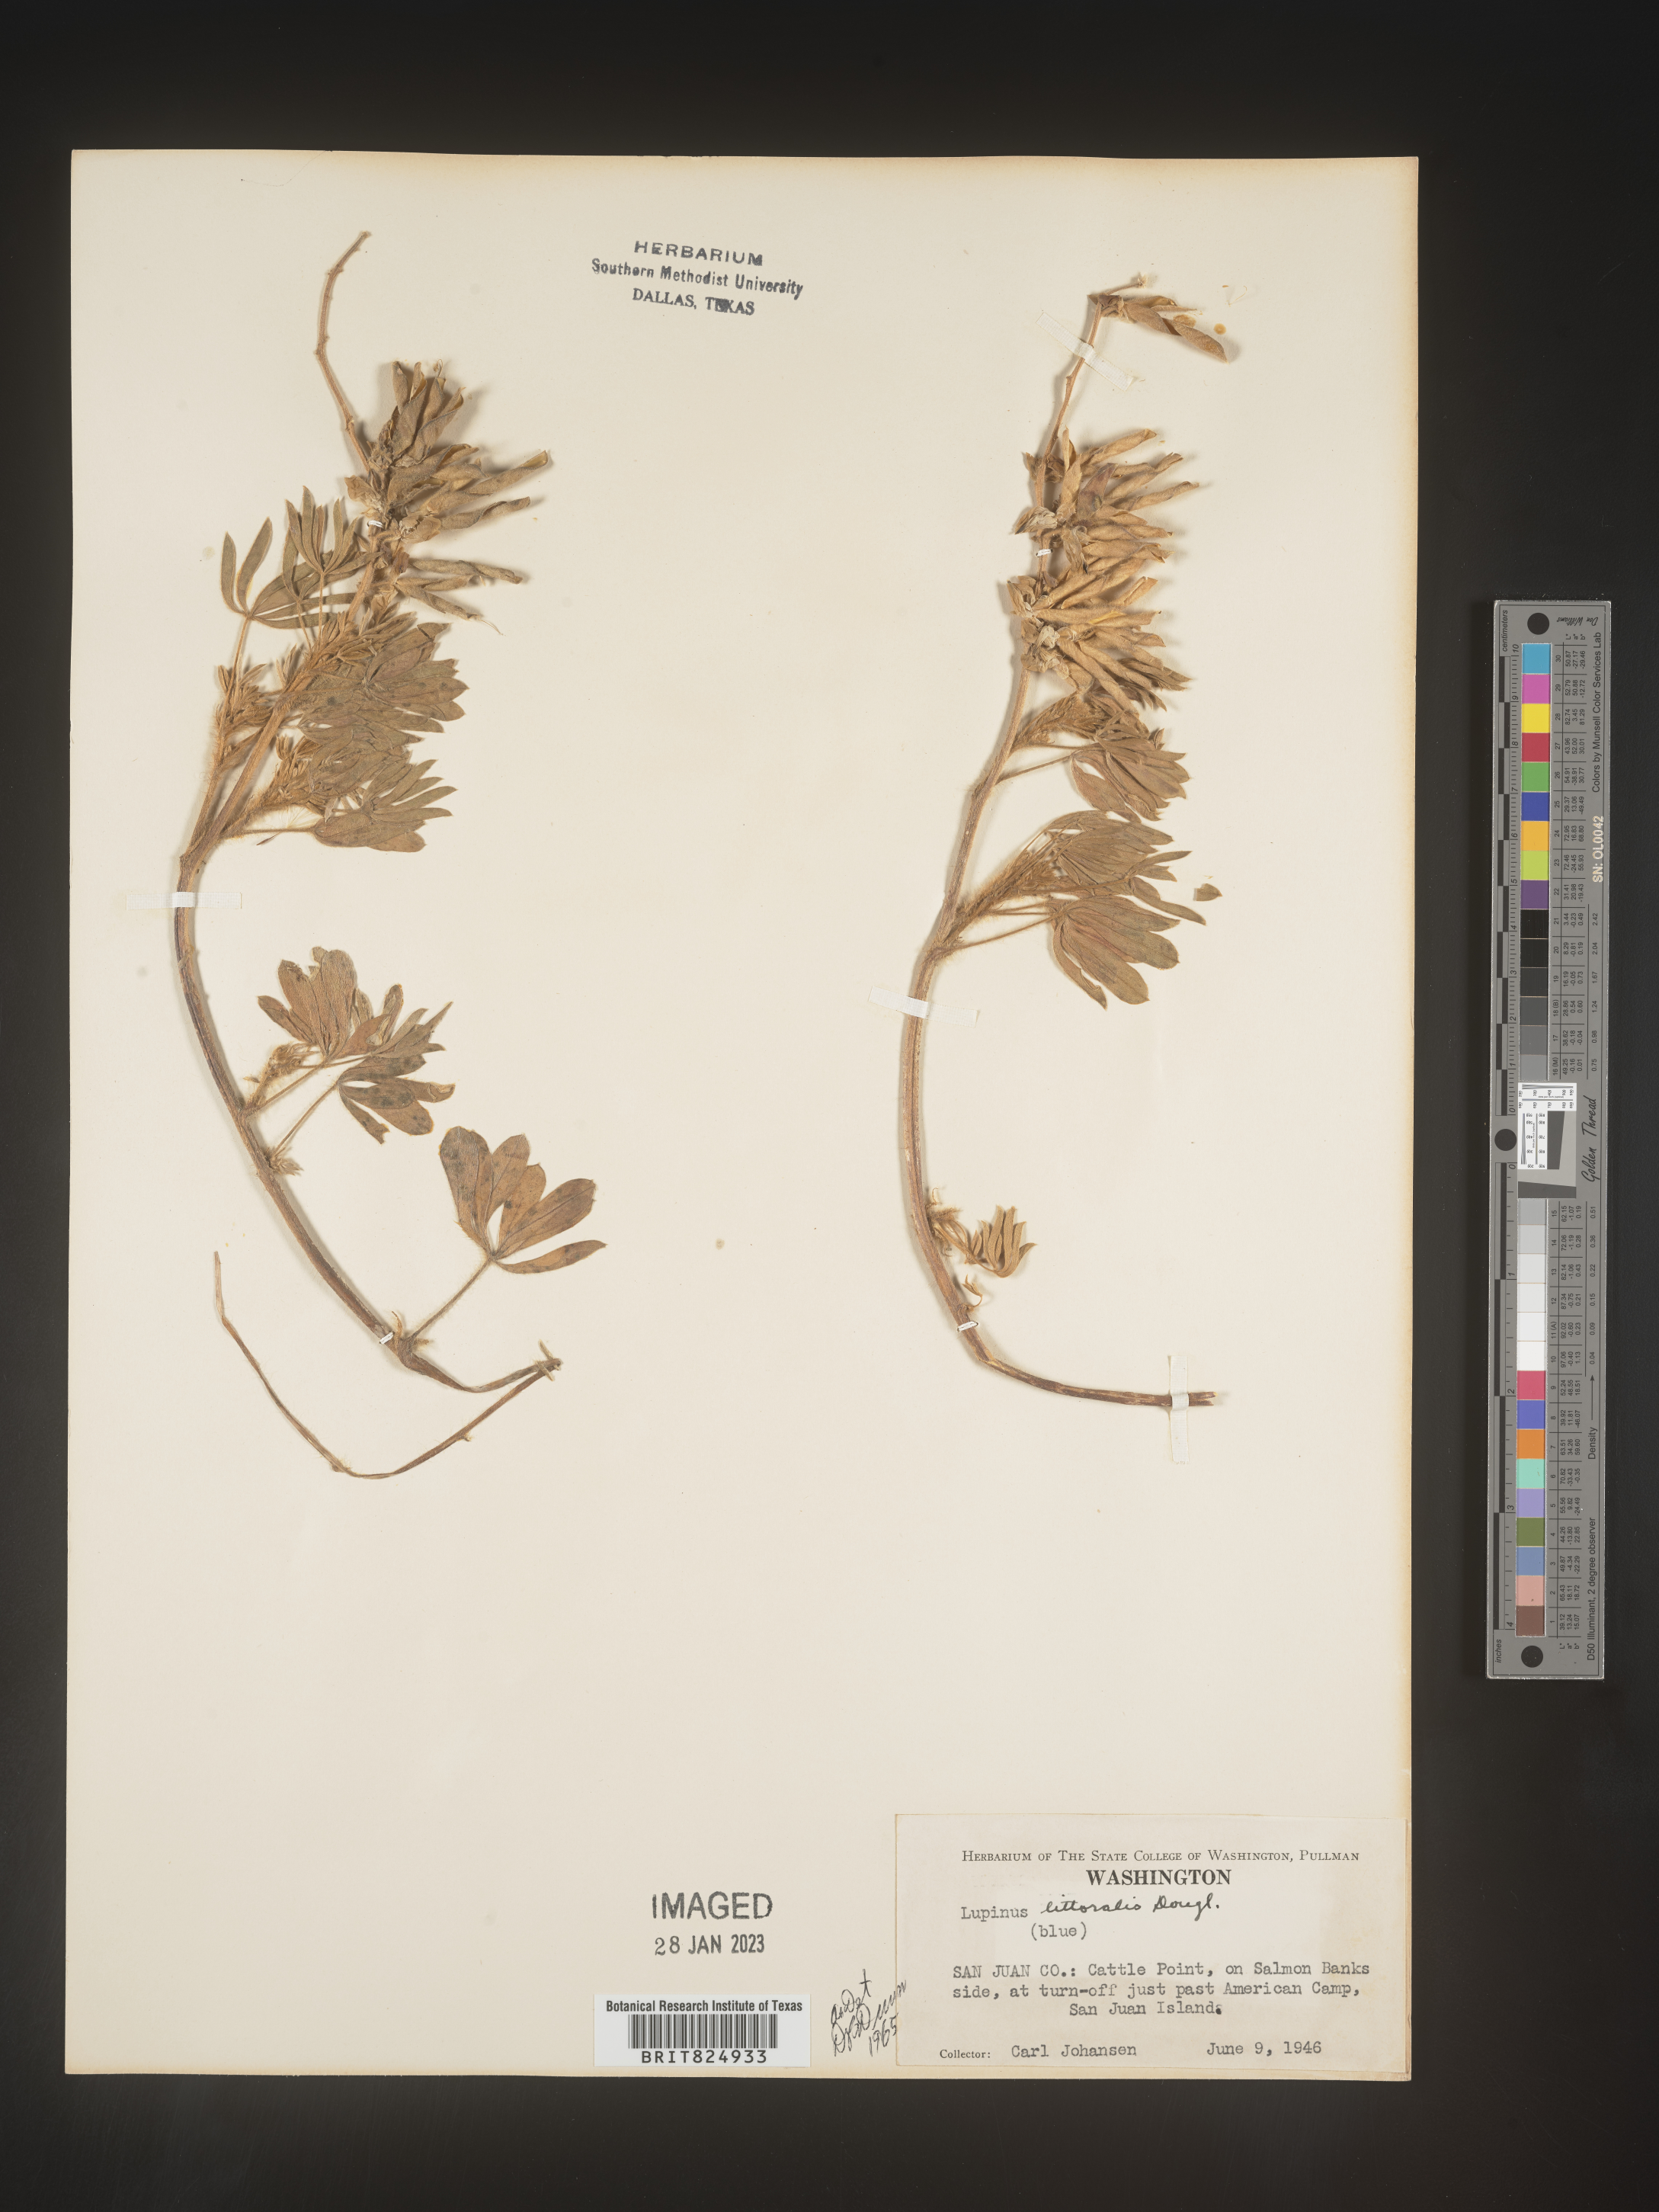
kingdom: Plantae
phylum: Tracheophyta
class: Magnoliopsida
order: Fabales
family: Fabaceae
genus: Lupinus
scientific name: Lupinus
